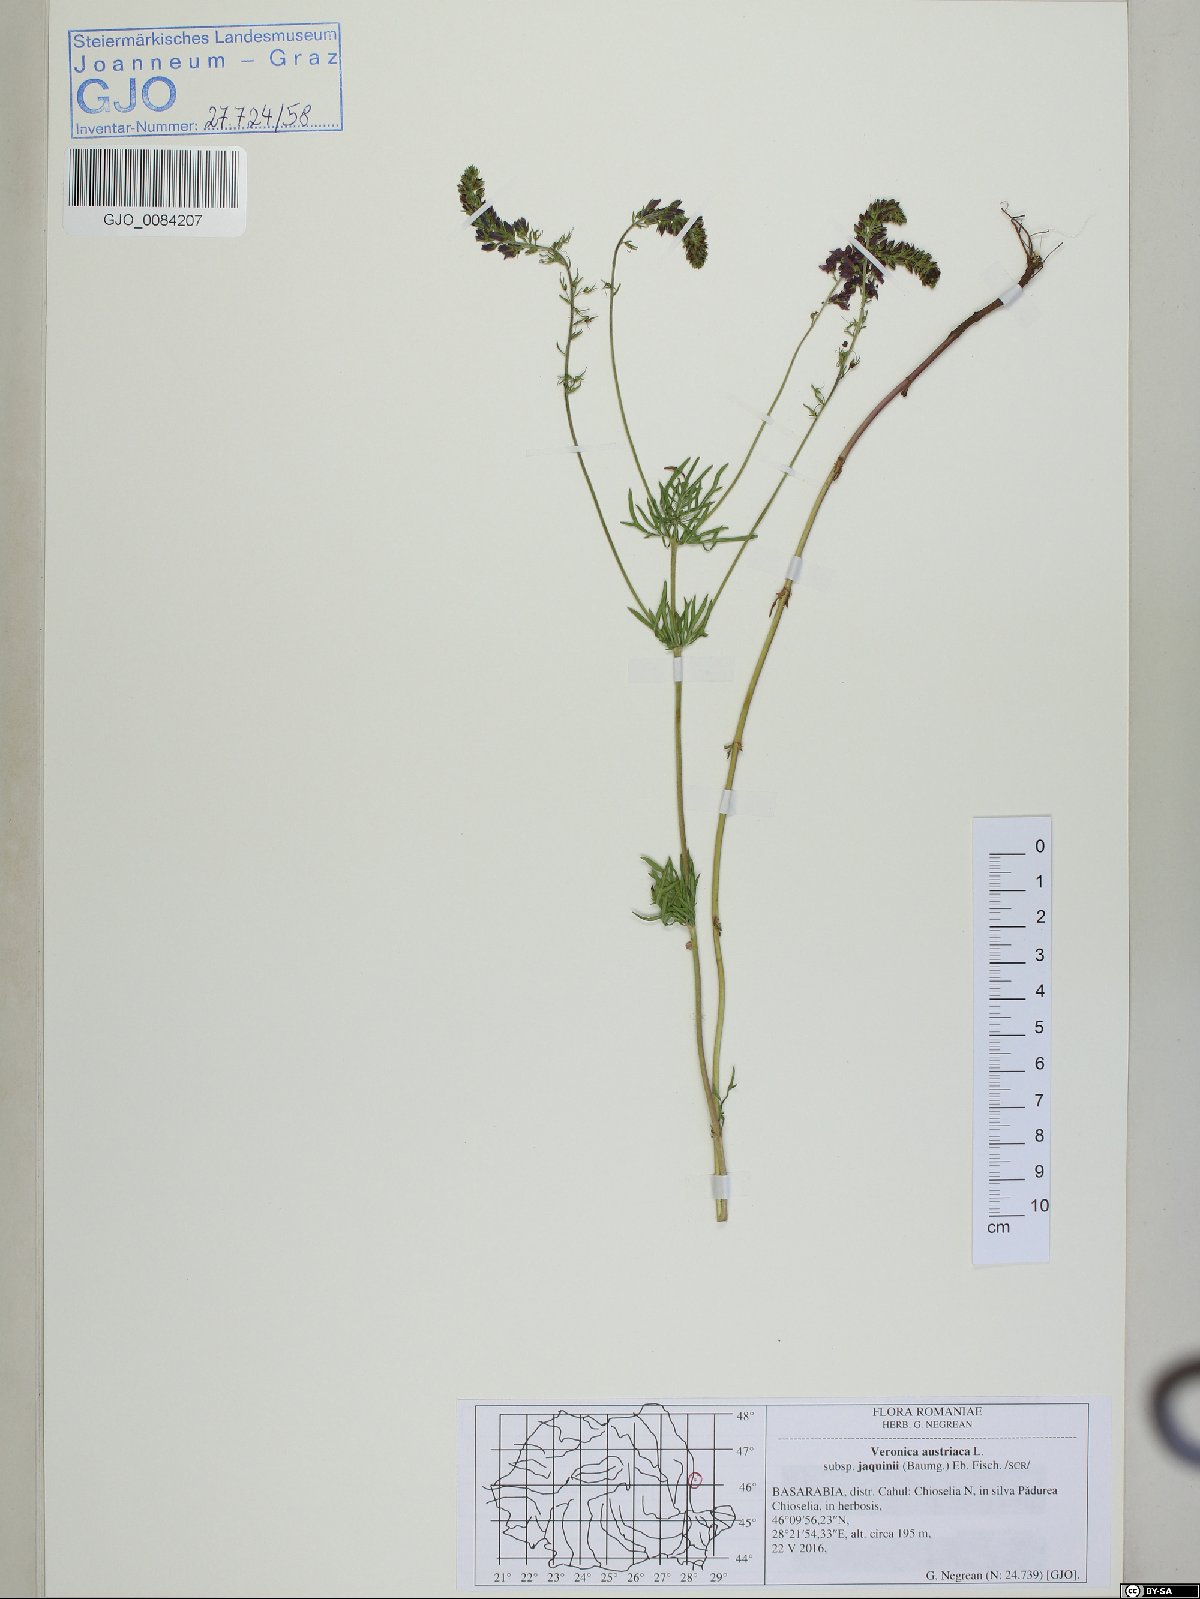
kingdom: Plantae
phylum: Tracheophyta
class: Magnoliopsida
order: Lamiales
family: Plantaginaceae
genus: Veronica
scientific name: Veronica austriaca
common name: Large speedwell
